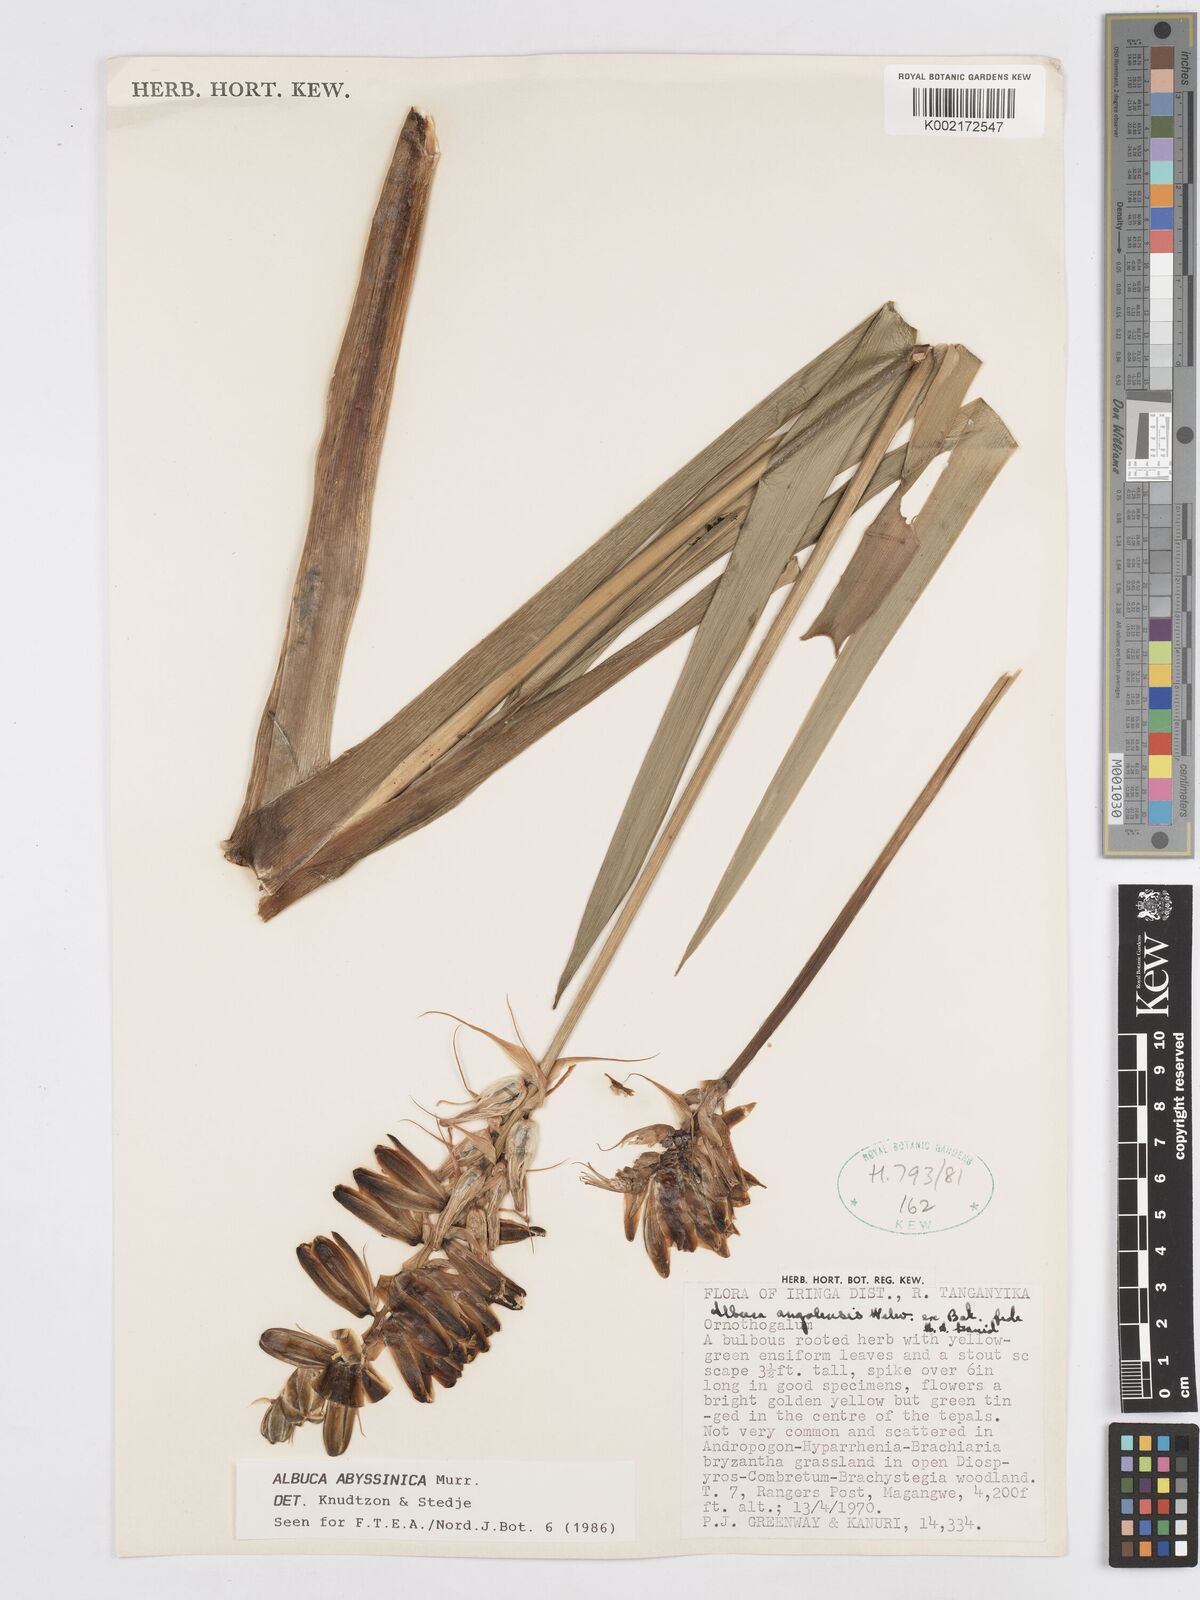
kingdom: Plantae
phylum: Tracheophyta
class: Liliopsida
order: Asparagales
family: Asparagaceae
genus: Albuca
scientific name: Albuca abyssinica
